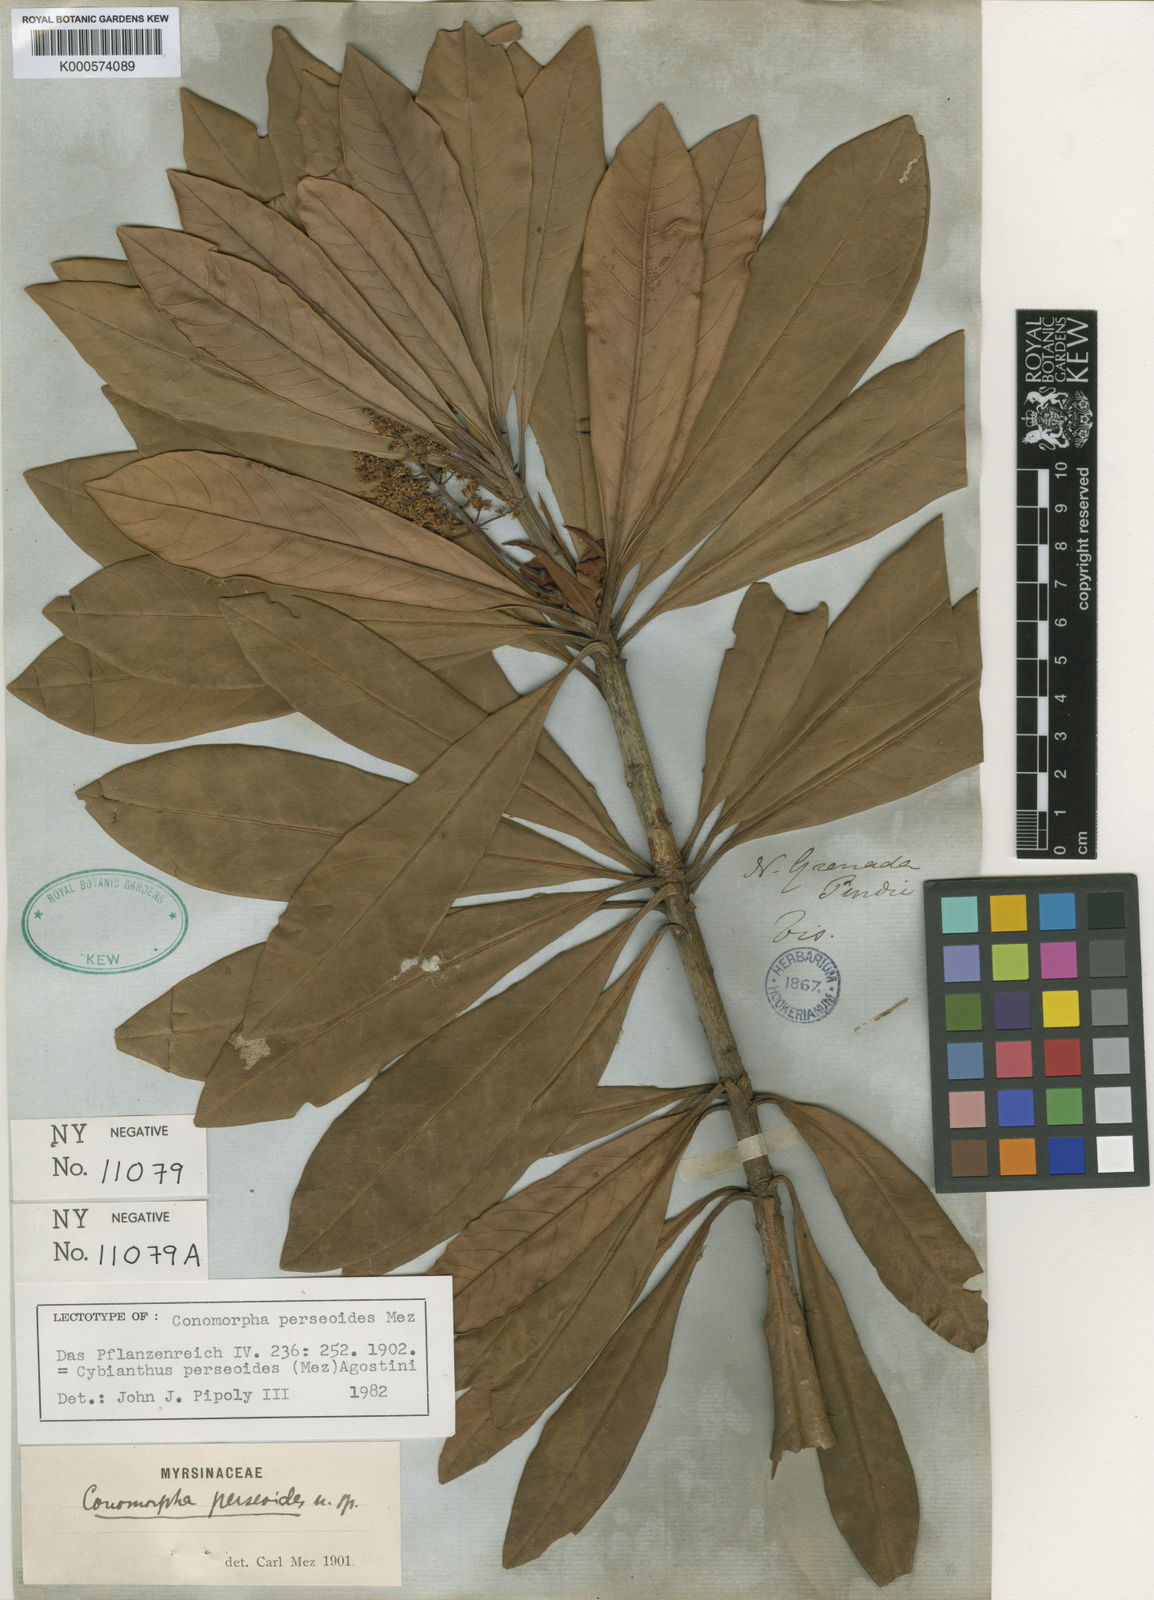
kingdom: Plantae
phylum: Tracheophyta
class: Magnoliopsida
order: Ericales
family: Primulaceae
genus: Cybianthus
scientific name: Cybianthus perseoides
